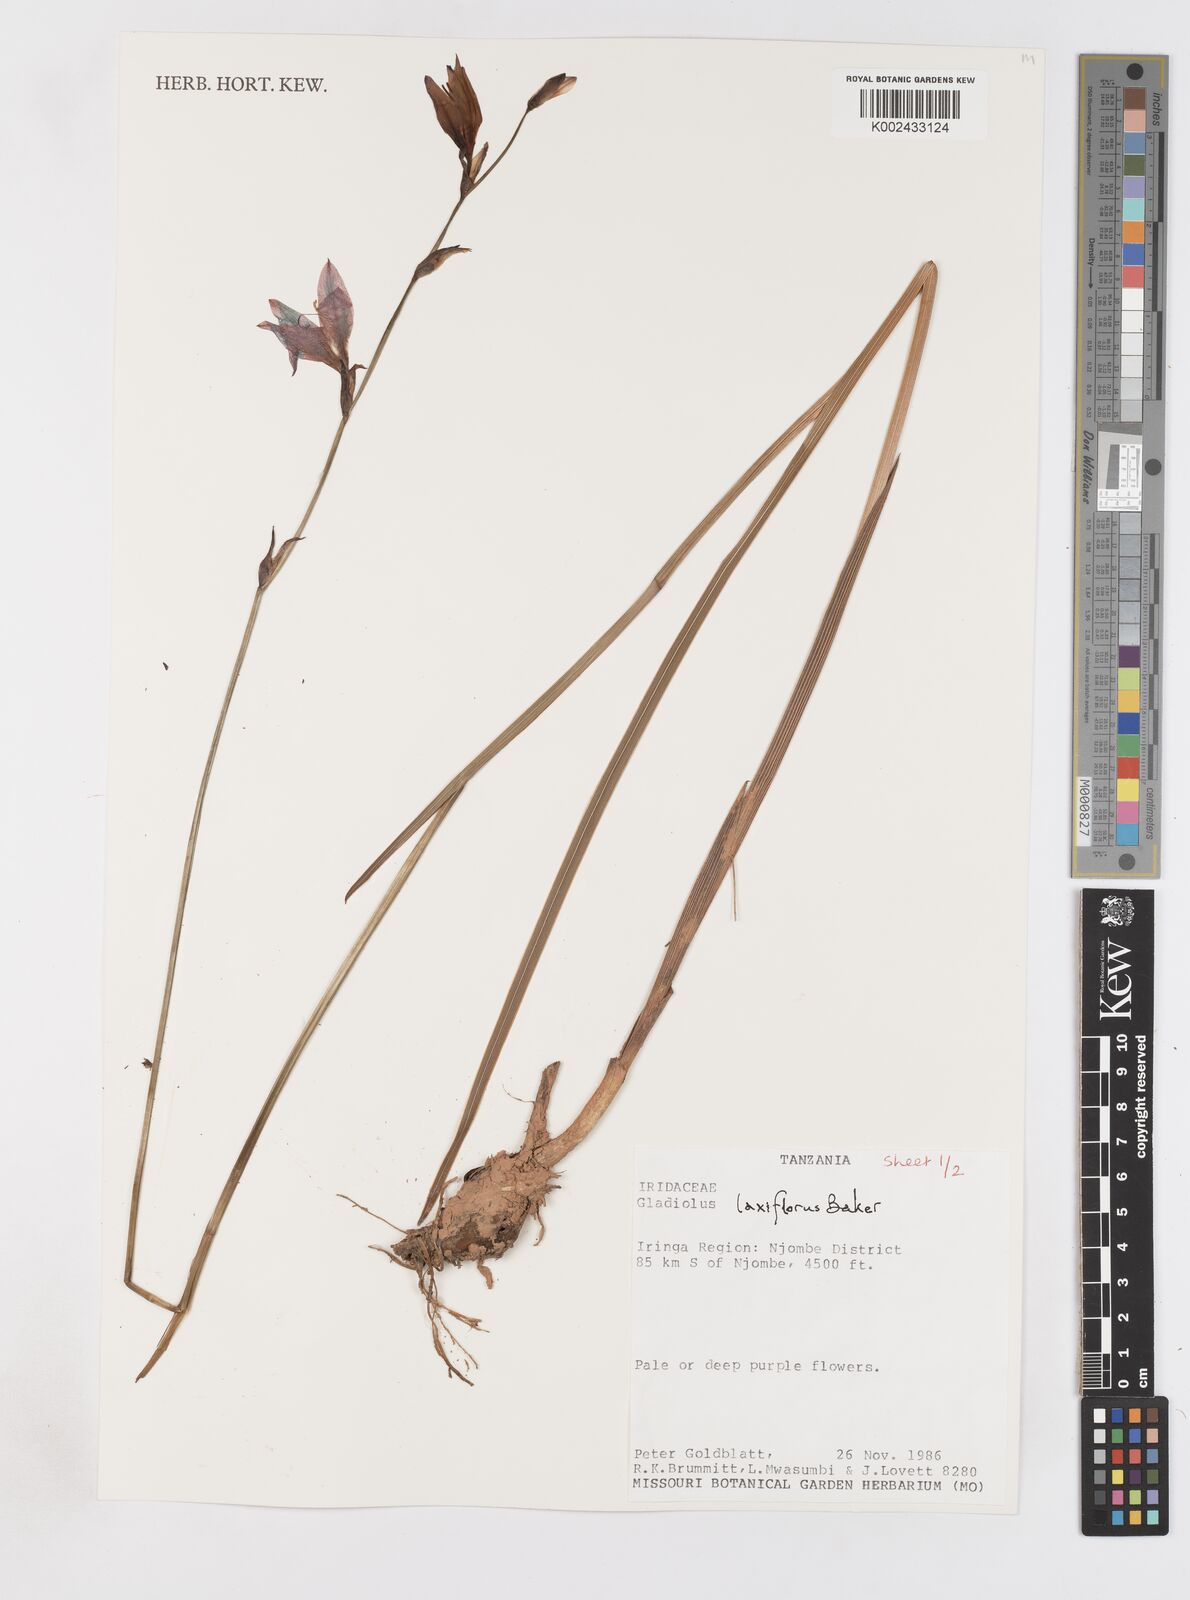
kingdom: Plantae
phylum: Tracheophyta
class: Liliopsida
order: Asparagales
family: Iridaceae
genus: Gladiolus
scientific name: Gladiolus laxiflorus
